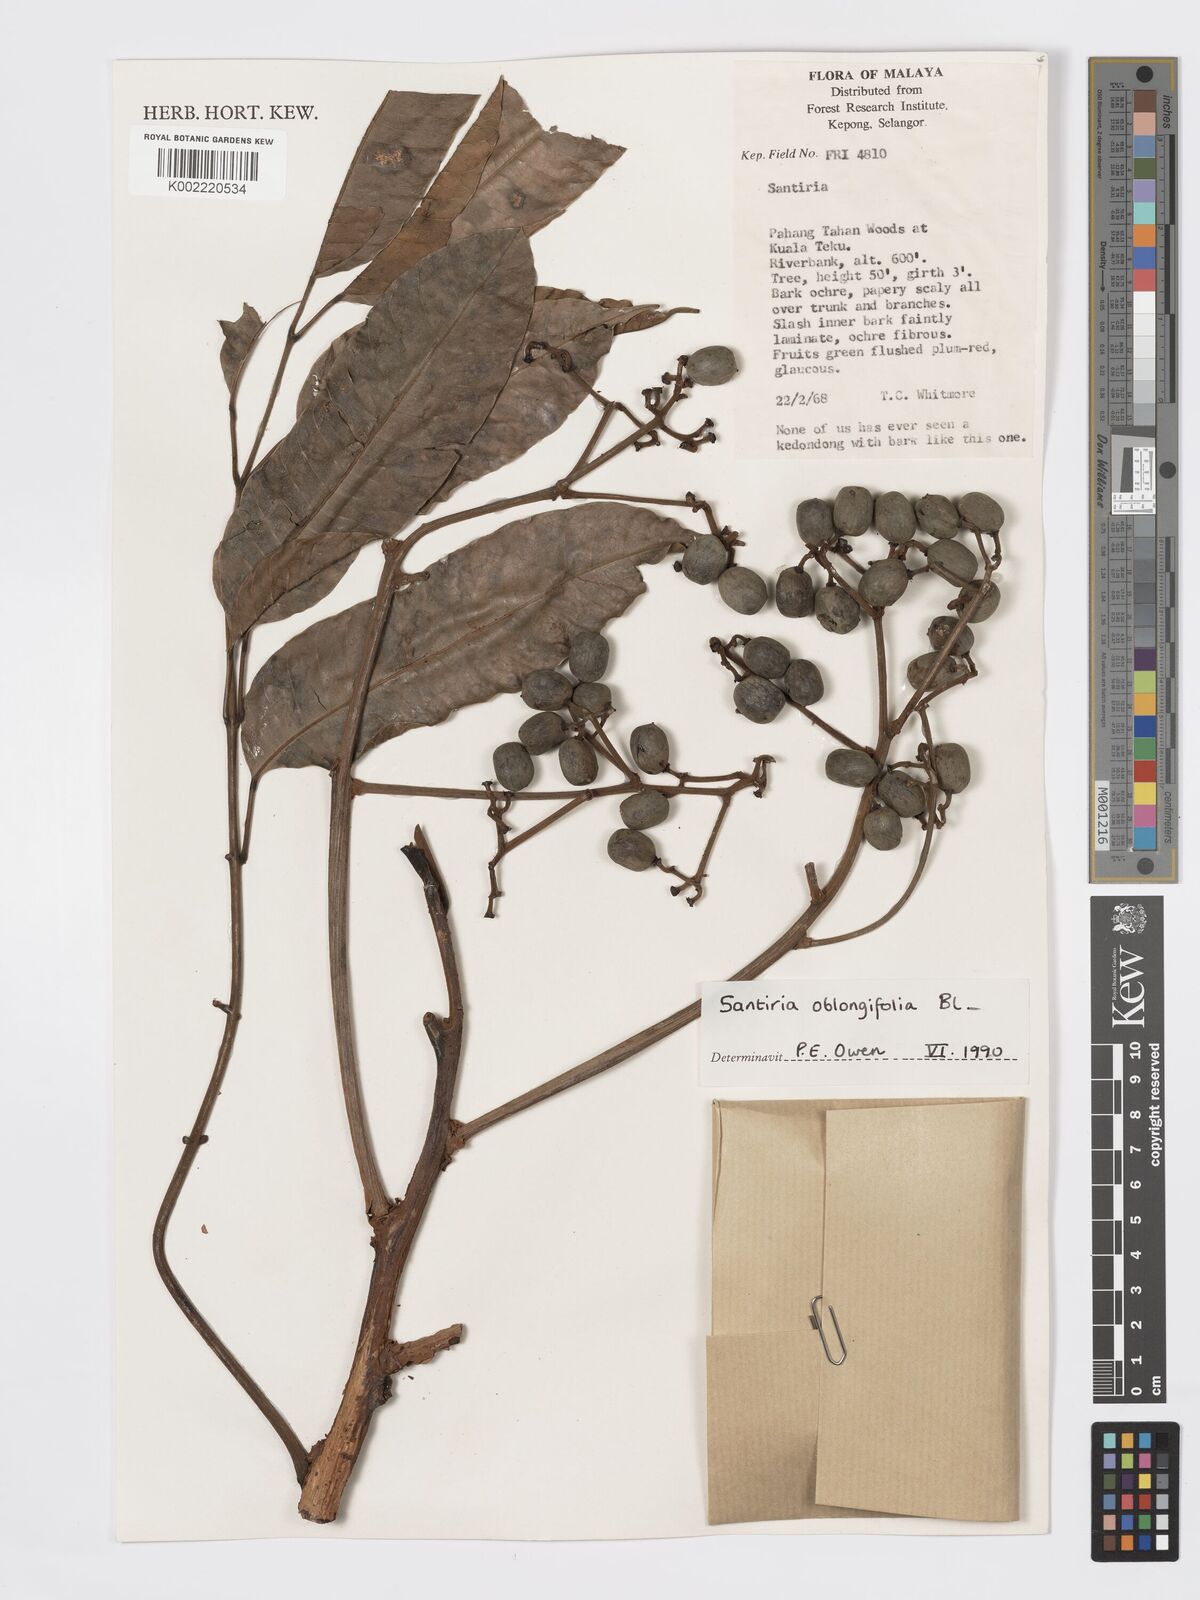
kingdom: Plantae
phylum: Tracheophyta
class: Magnoliopsida
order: Sapindales
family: Burseraceae
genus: Santiria
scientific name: Santiria oblongifolia
